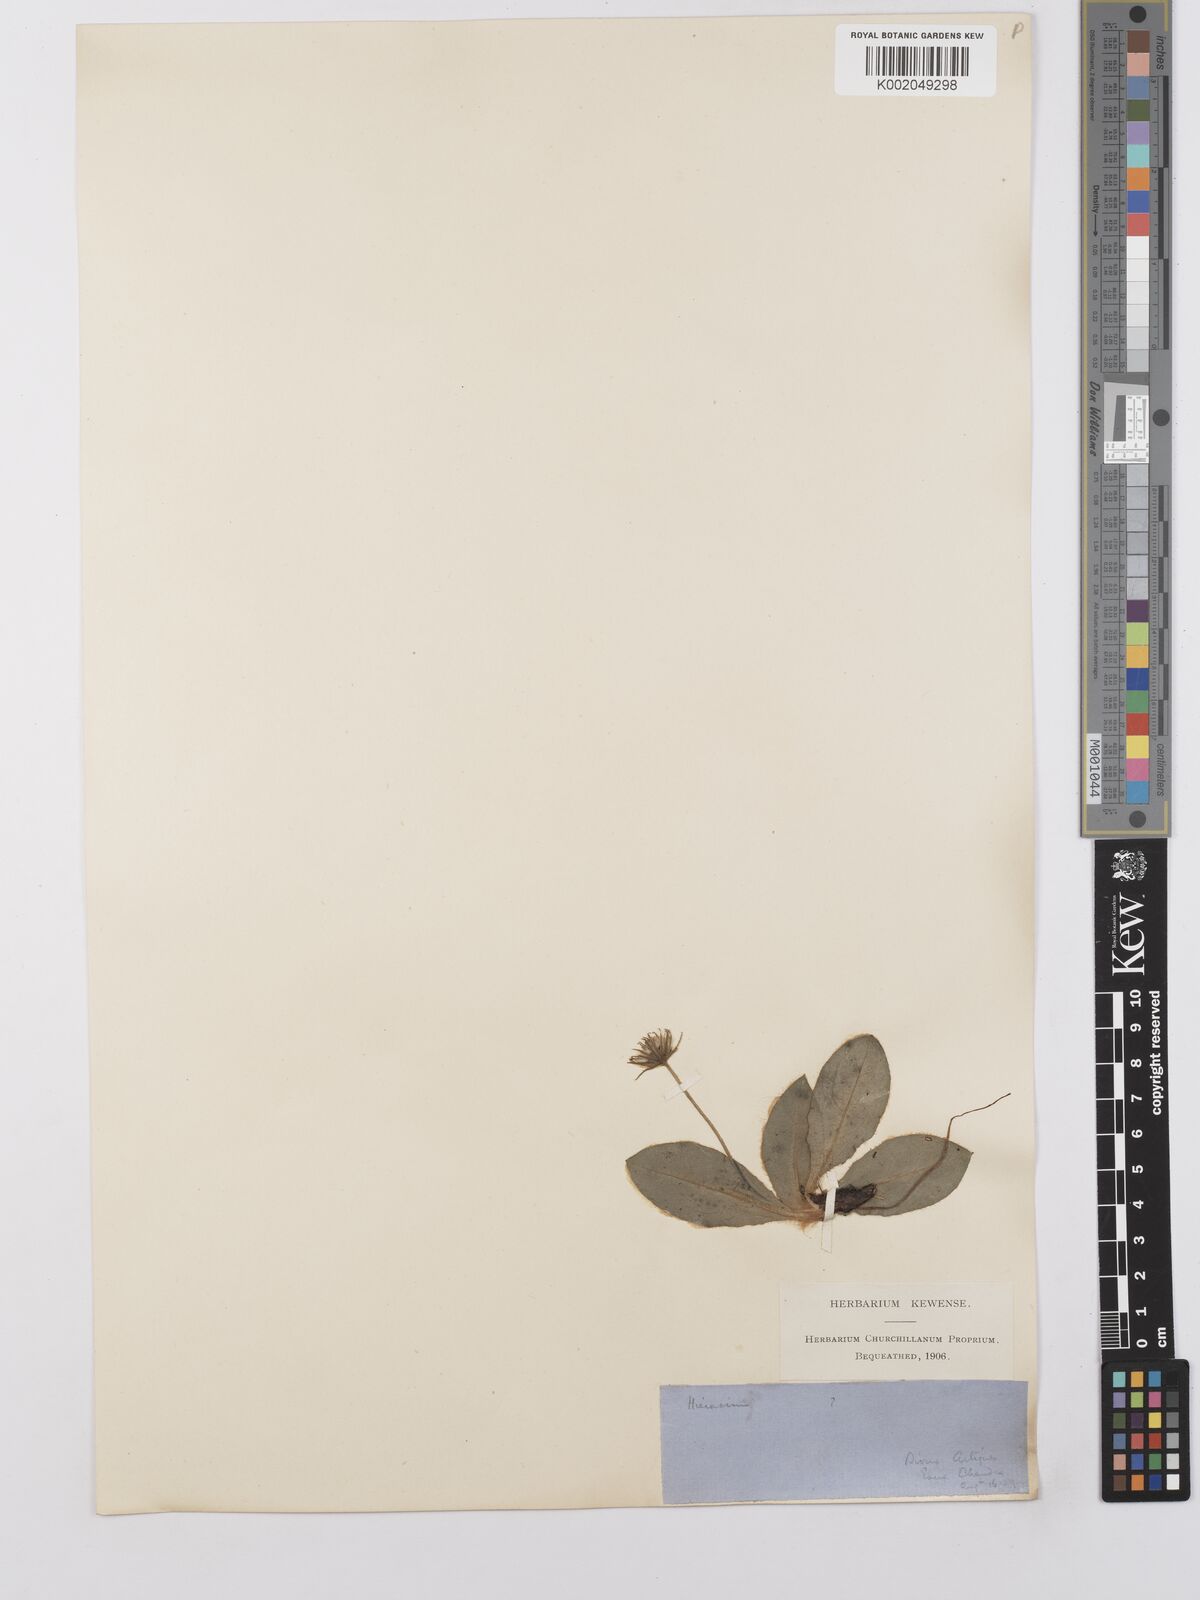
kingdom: Plantae
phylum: Tracheophyta
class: Magnoliopsida
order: Asterales
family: Asteraceae
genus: Hieracium
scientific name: Hieracium colmeiroanum
